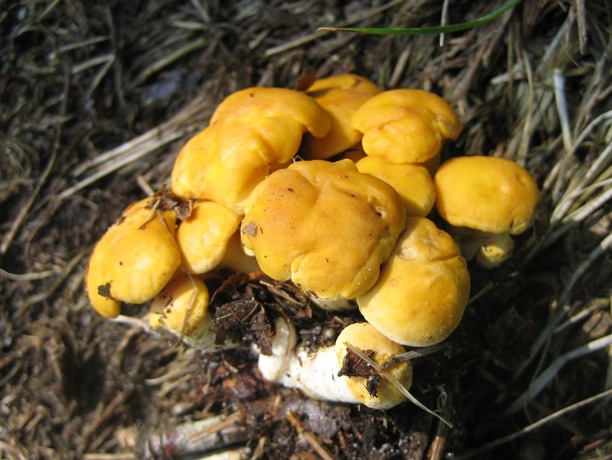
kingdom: Fungi
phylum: Basidiomycota
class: Agaricomycetes
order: Cantharellales
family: Hydnaceae
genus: Cantharellus
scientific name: Cantharellus cibarius
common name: almindelig kantarel
